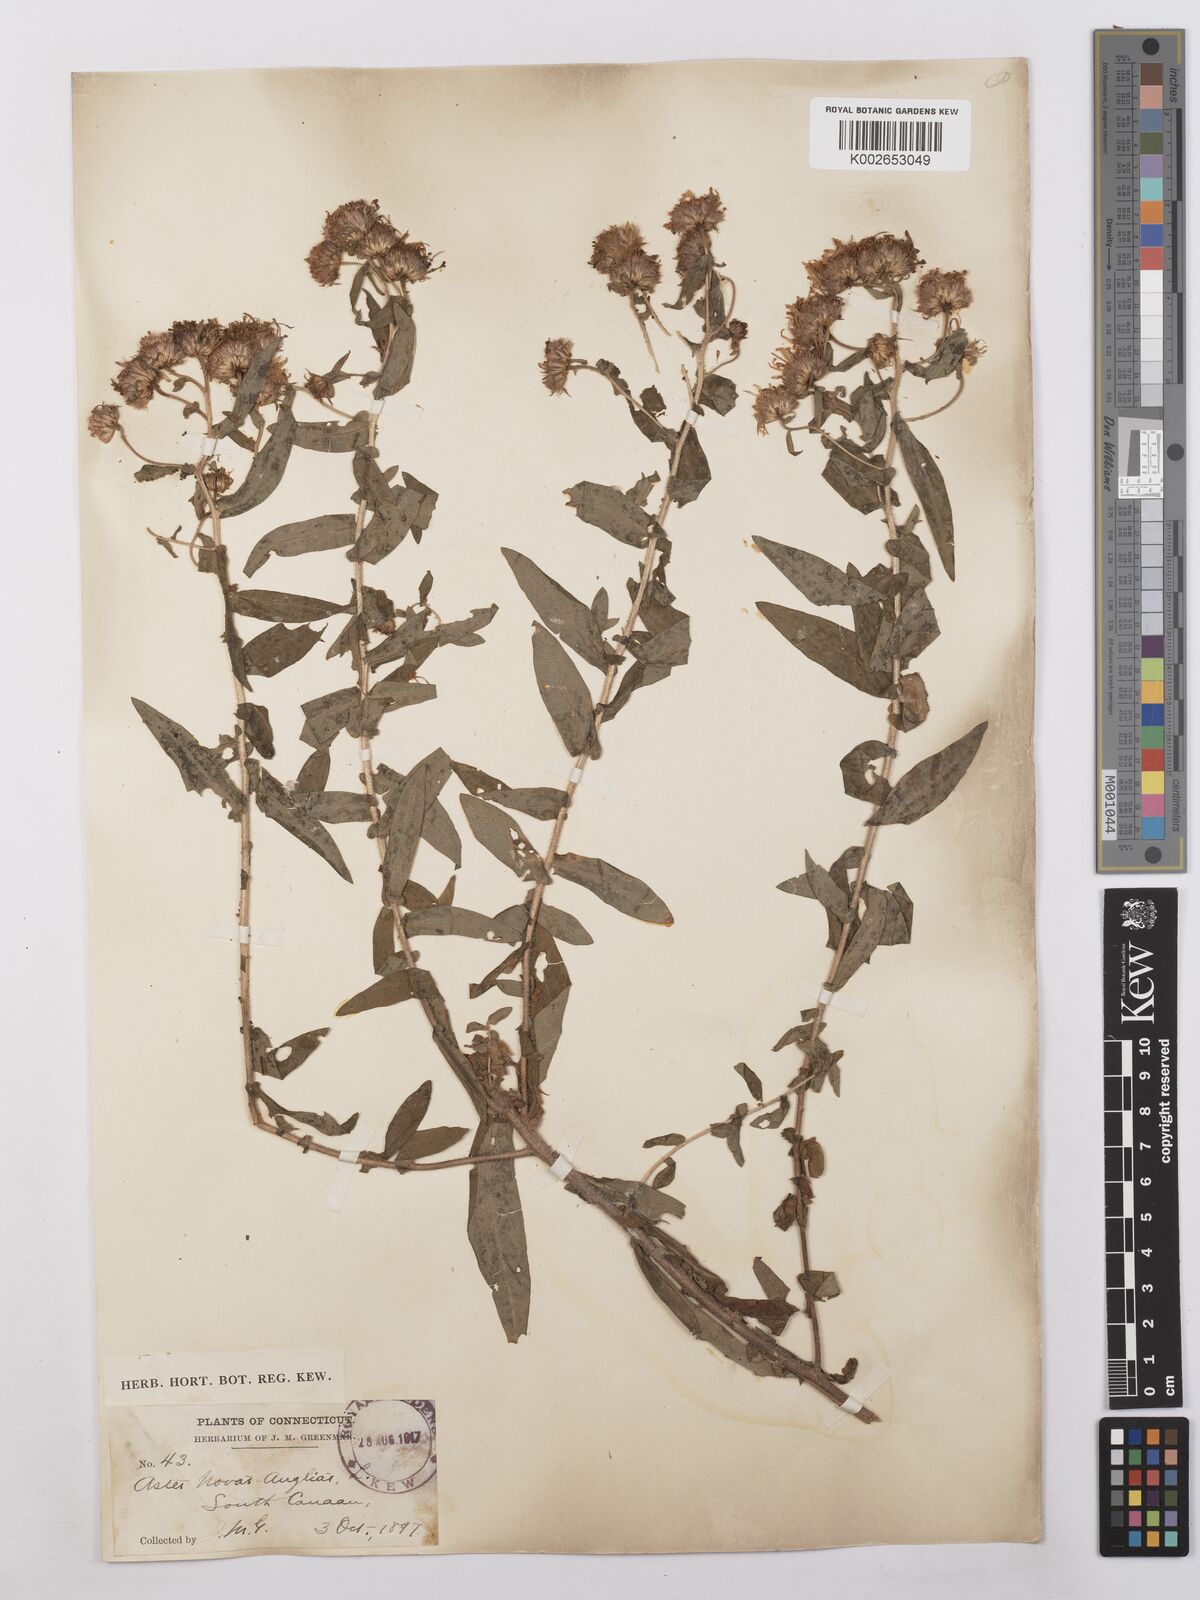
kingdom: Plantae
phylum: Tracheophyta
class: Magnoliopsida
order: Asterales
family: Asteraceae
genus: Symphyotrichum
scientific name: Symphyotrichum novae-angliae
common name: Michaelmas daisy
